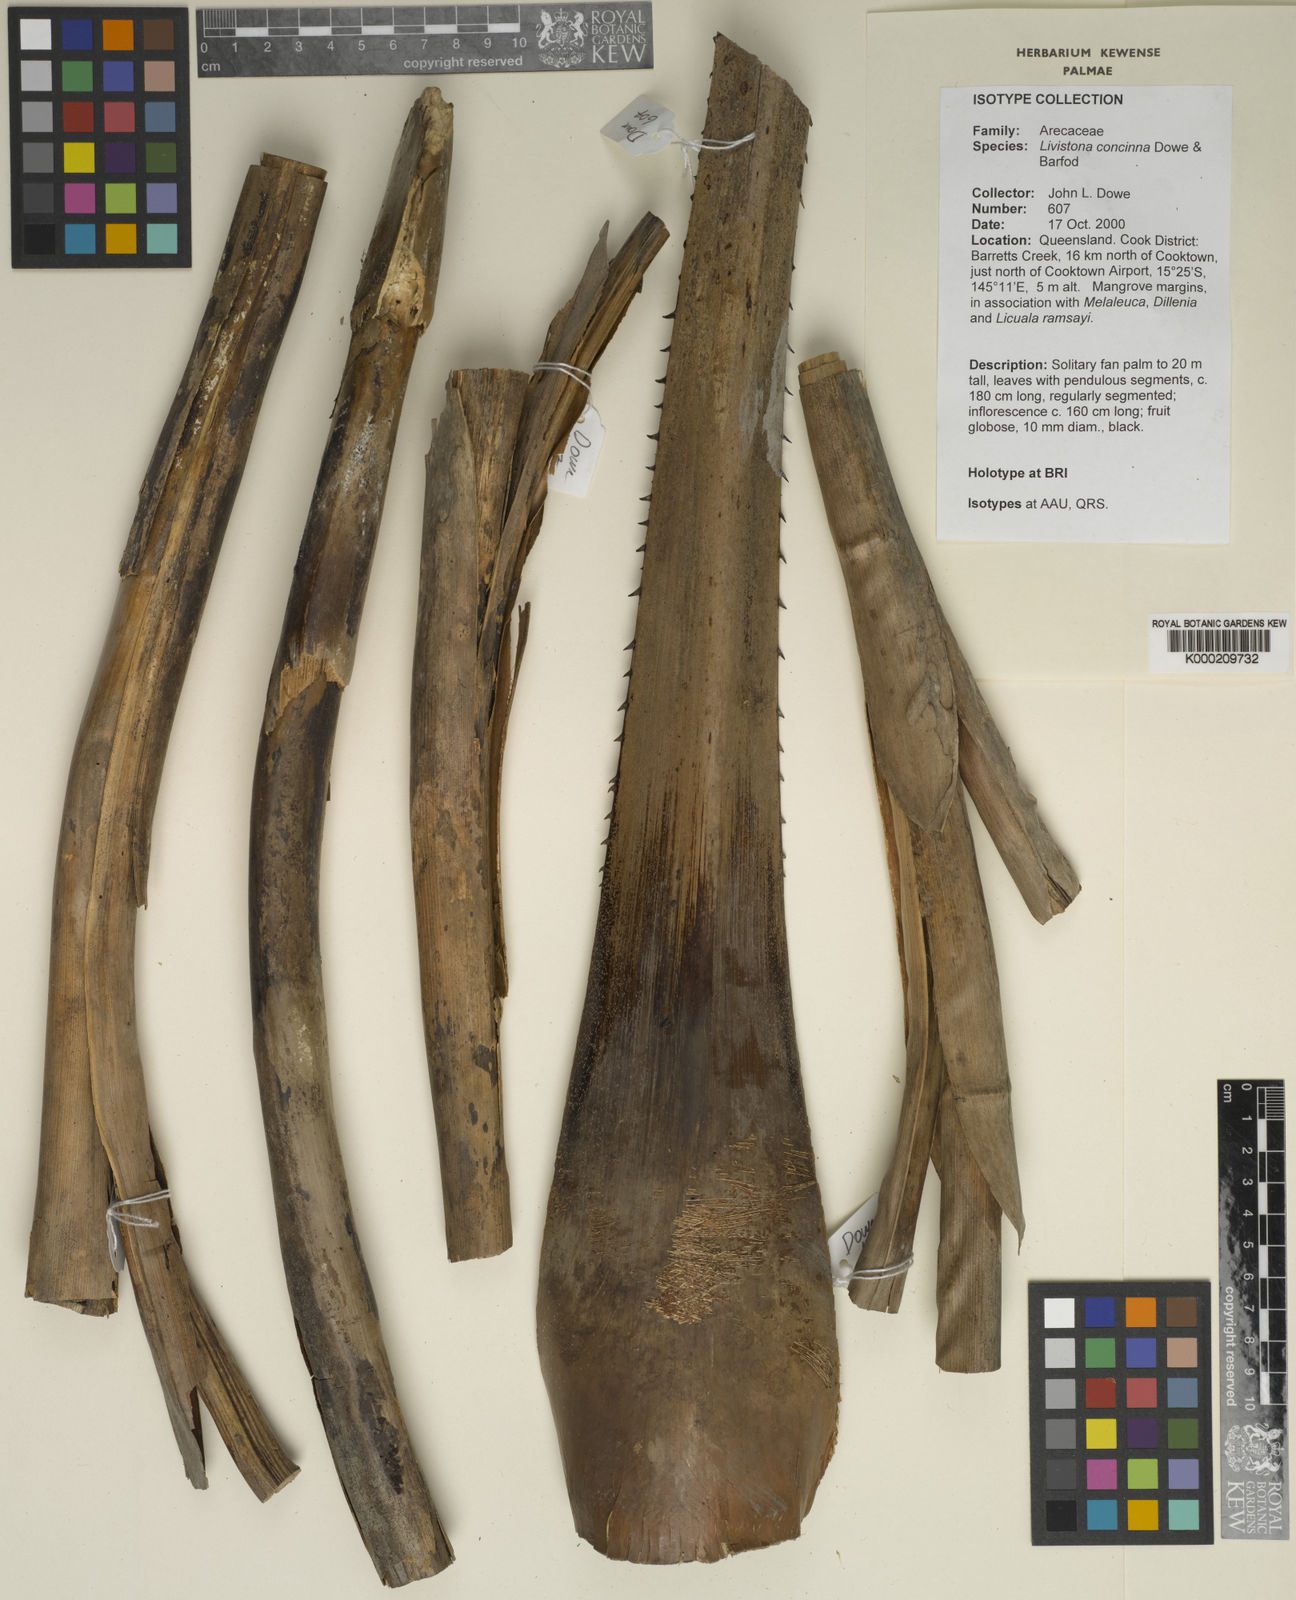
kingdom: Plantae
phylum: Tracheophyta
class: Liliopsida
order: Arecales
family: Arecaceae
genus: Livistona
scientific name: Livistona concinna
